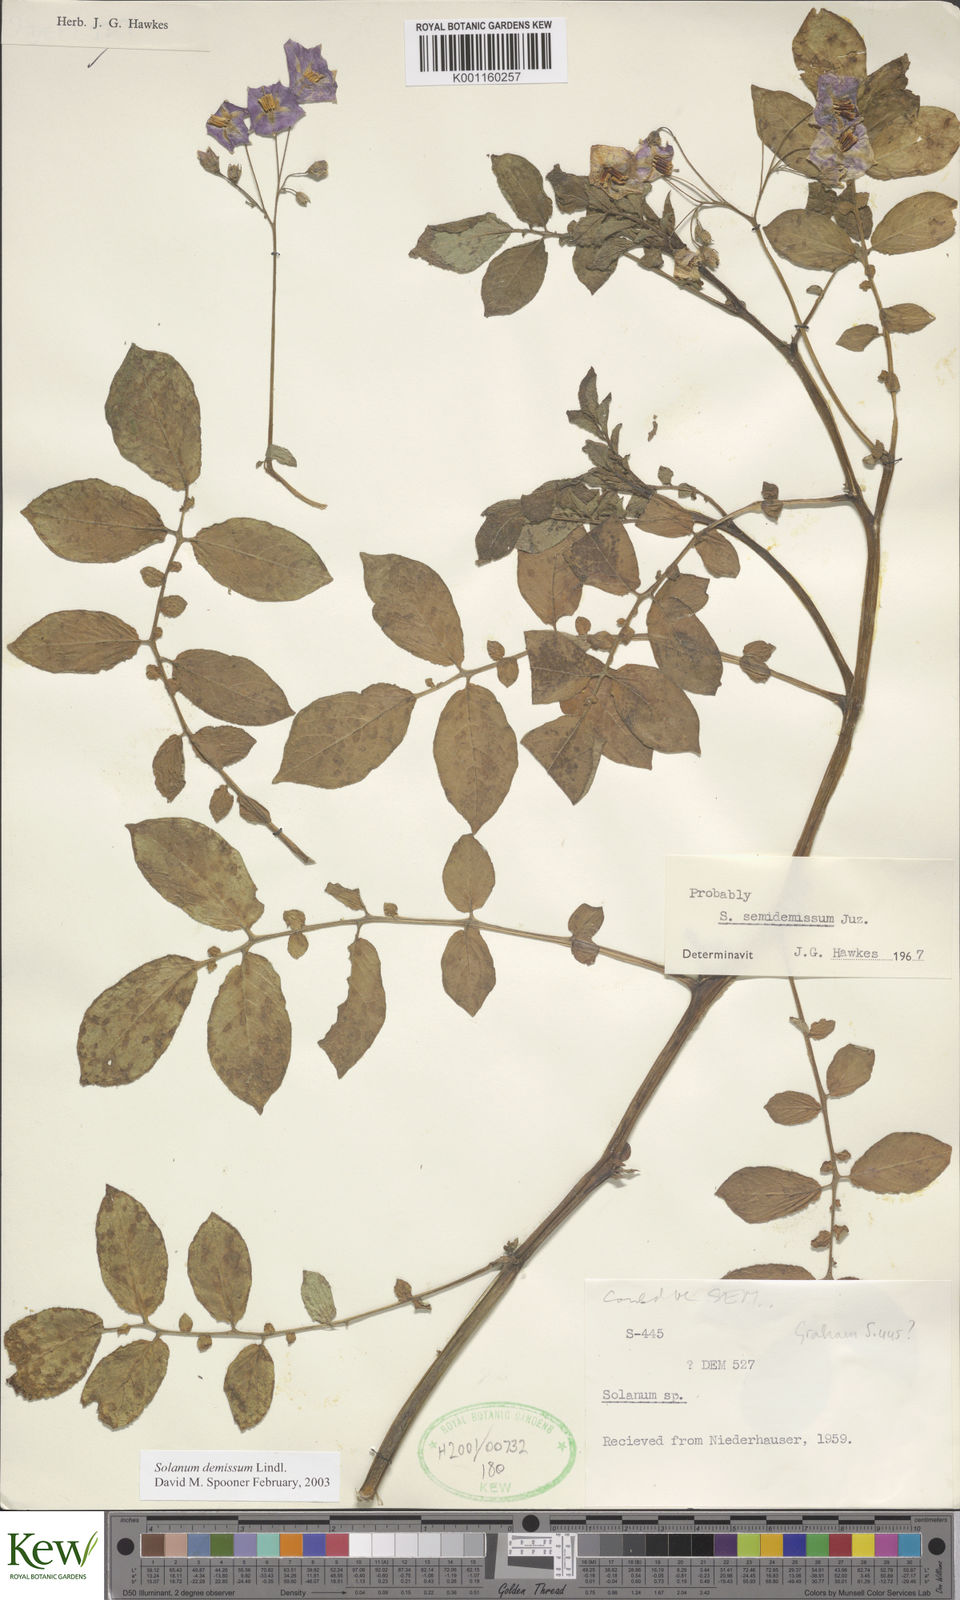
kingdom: Plantae
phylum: Tracheophyta
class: Magnoliopsida
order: Solanales
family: Solanaceae
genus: Solanum
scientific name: Solanum demissum
